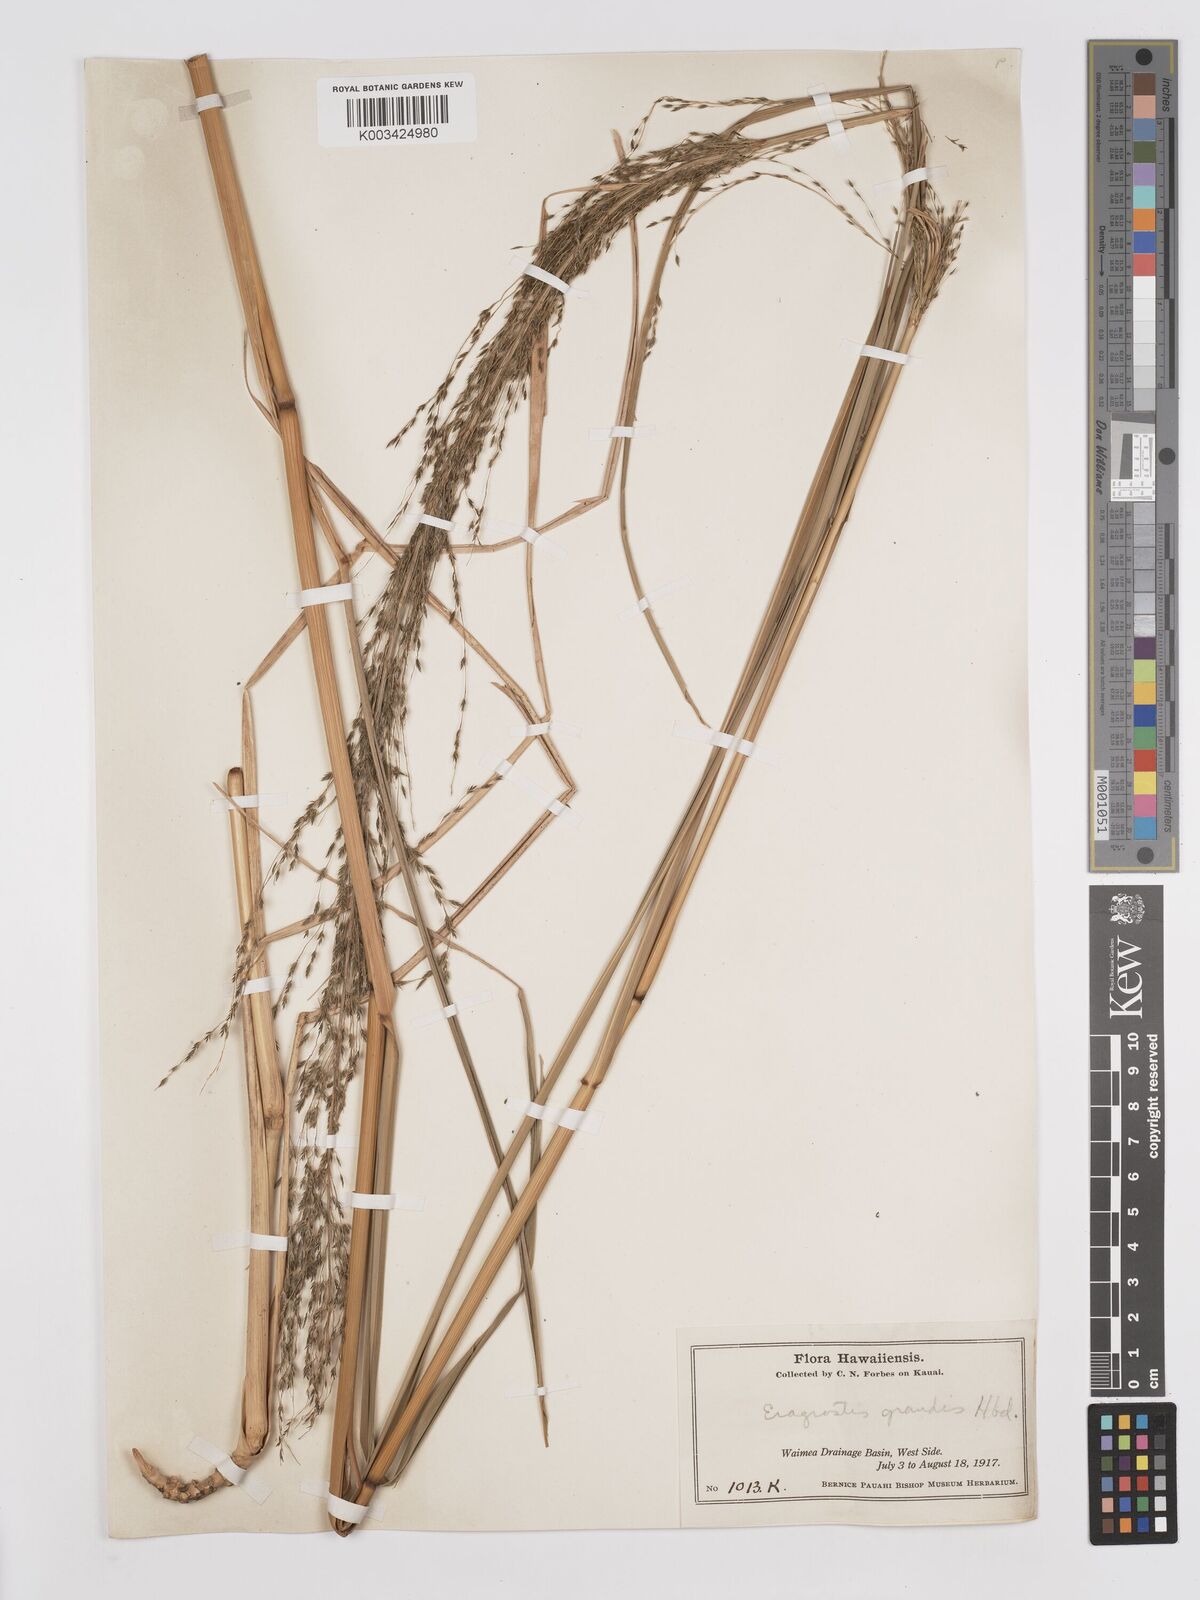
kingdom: Plantae
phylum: Tracheophyta
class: Liliopsida
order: Poales
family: Poaceae
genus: Eragrostis
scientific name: Eragrostis grandis
